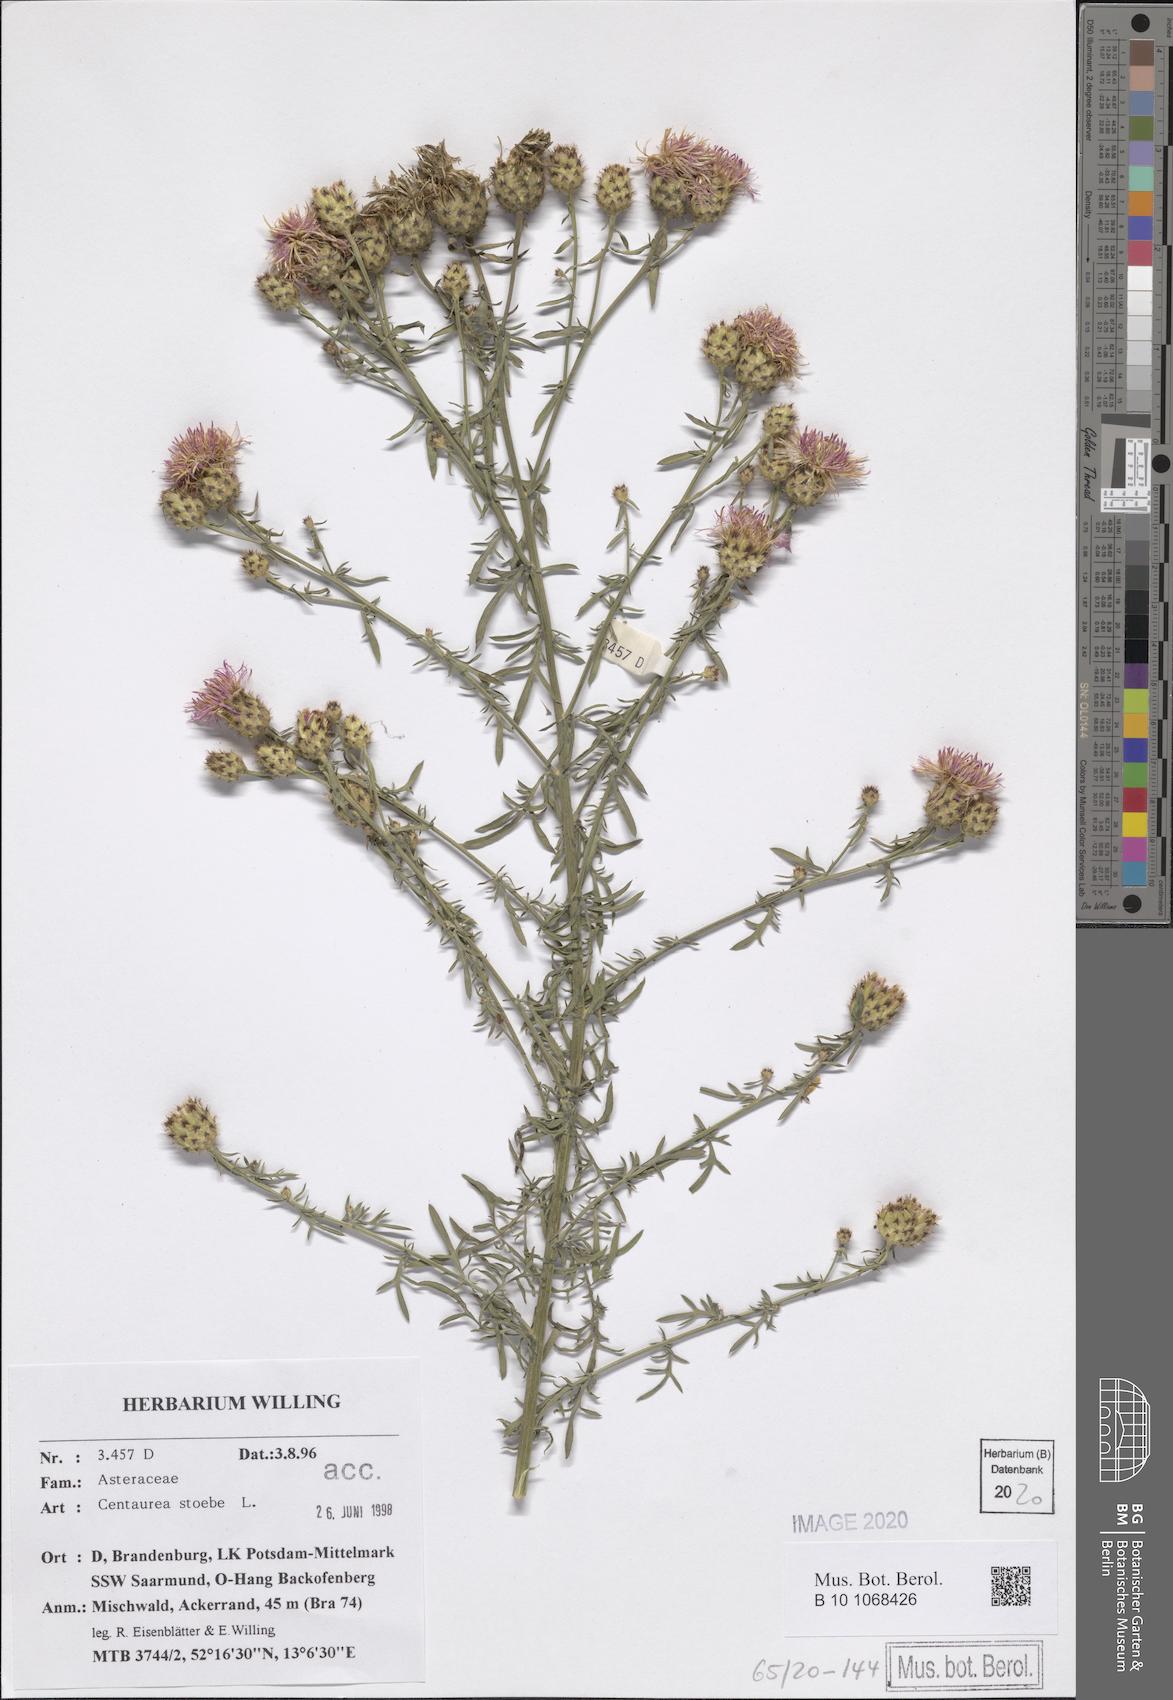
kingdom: Plantae
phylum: Tracheophyta
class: Magnoliopsida
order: Asterales
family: Asteraceae
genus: Centaurea
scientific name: Centaurea stoebe
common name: Spotted knapweed
